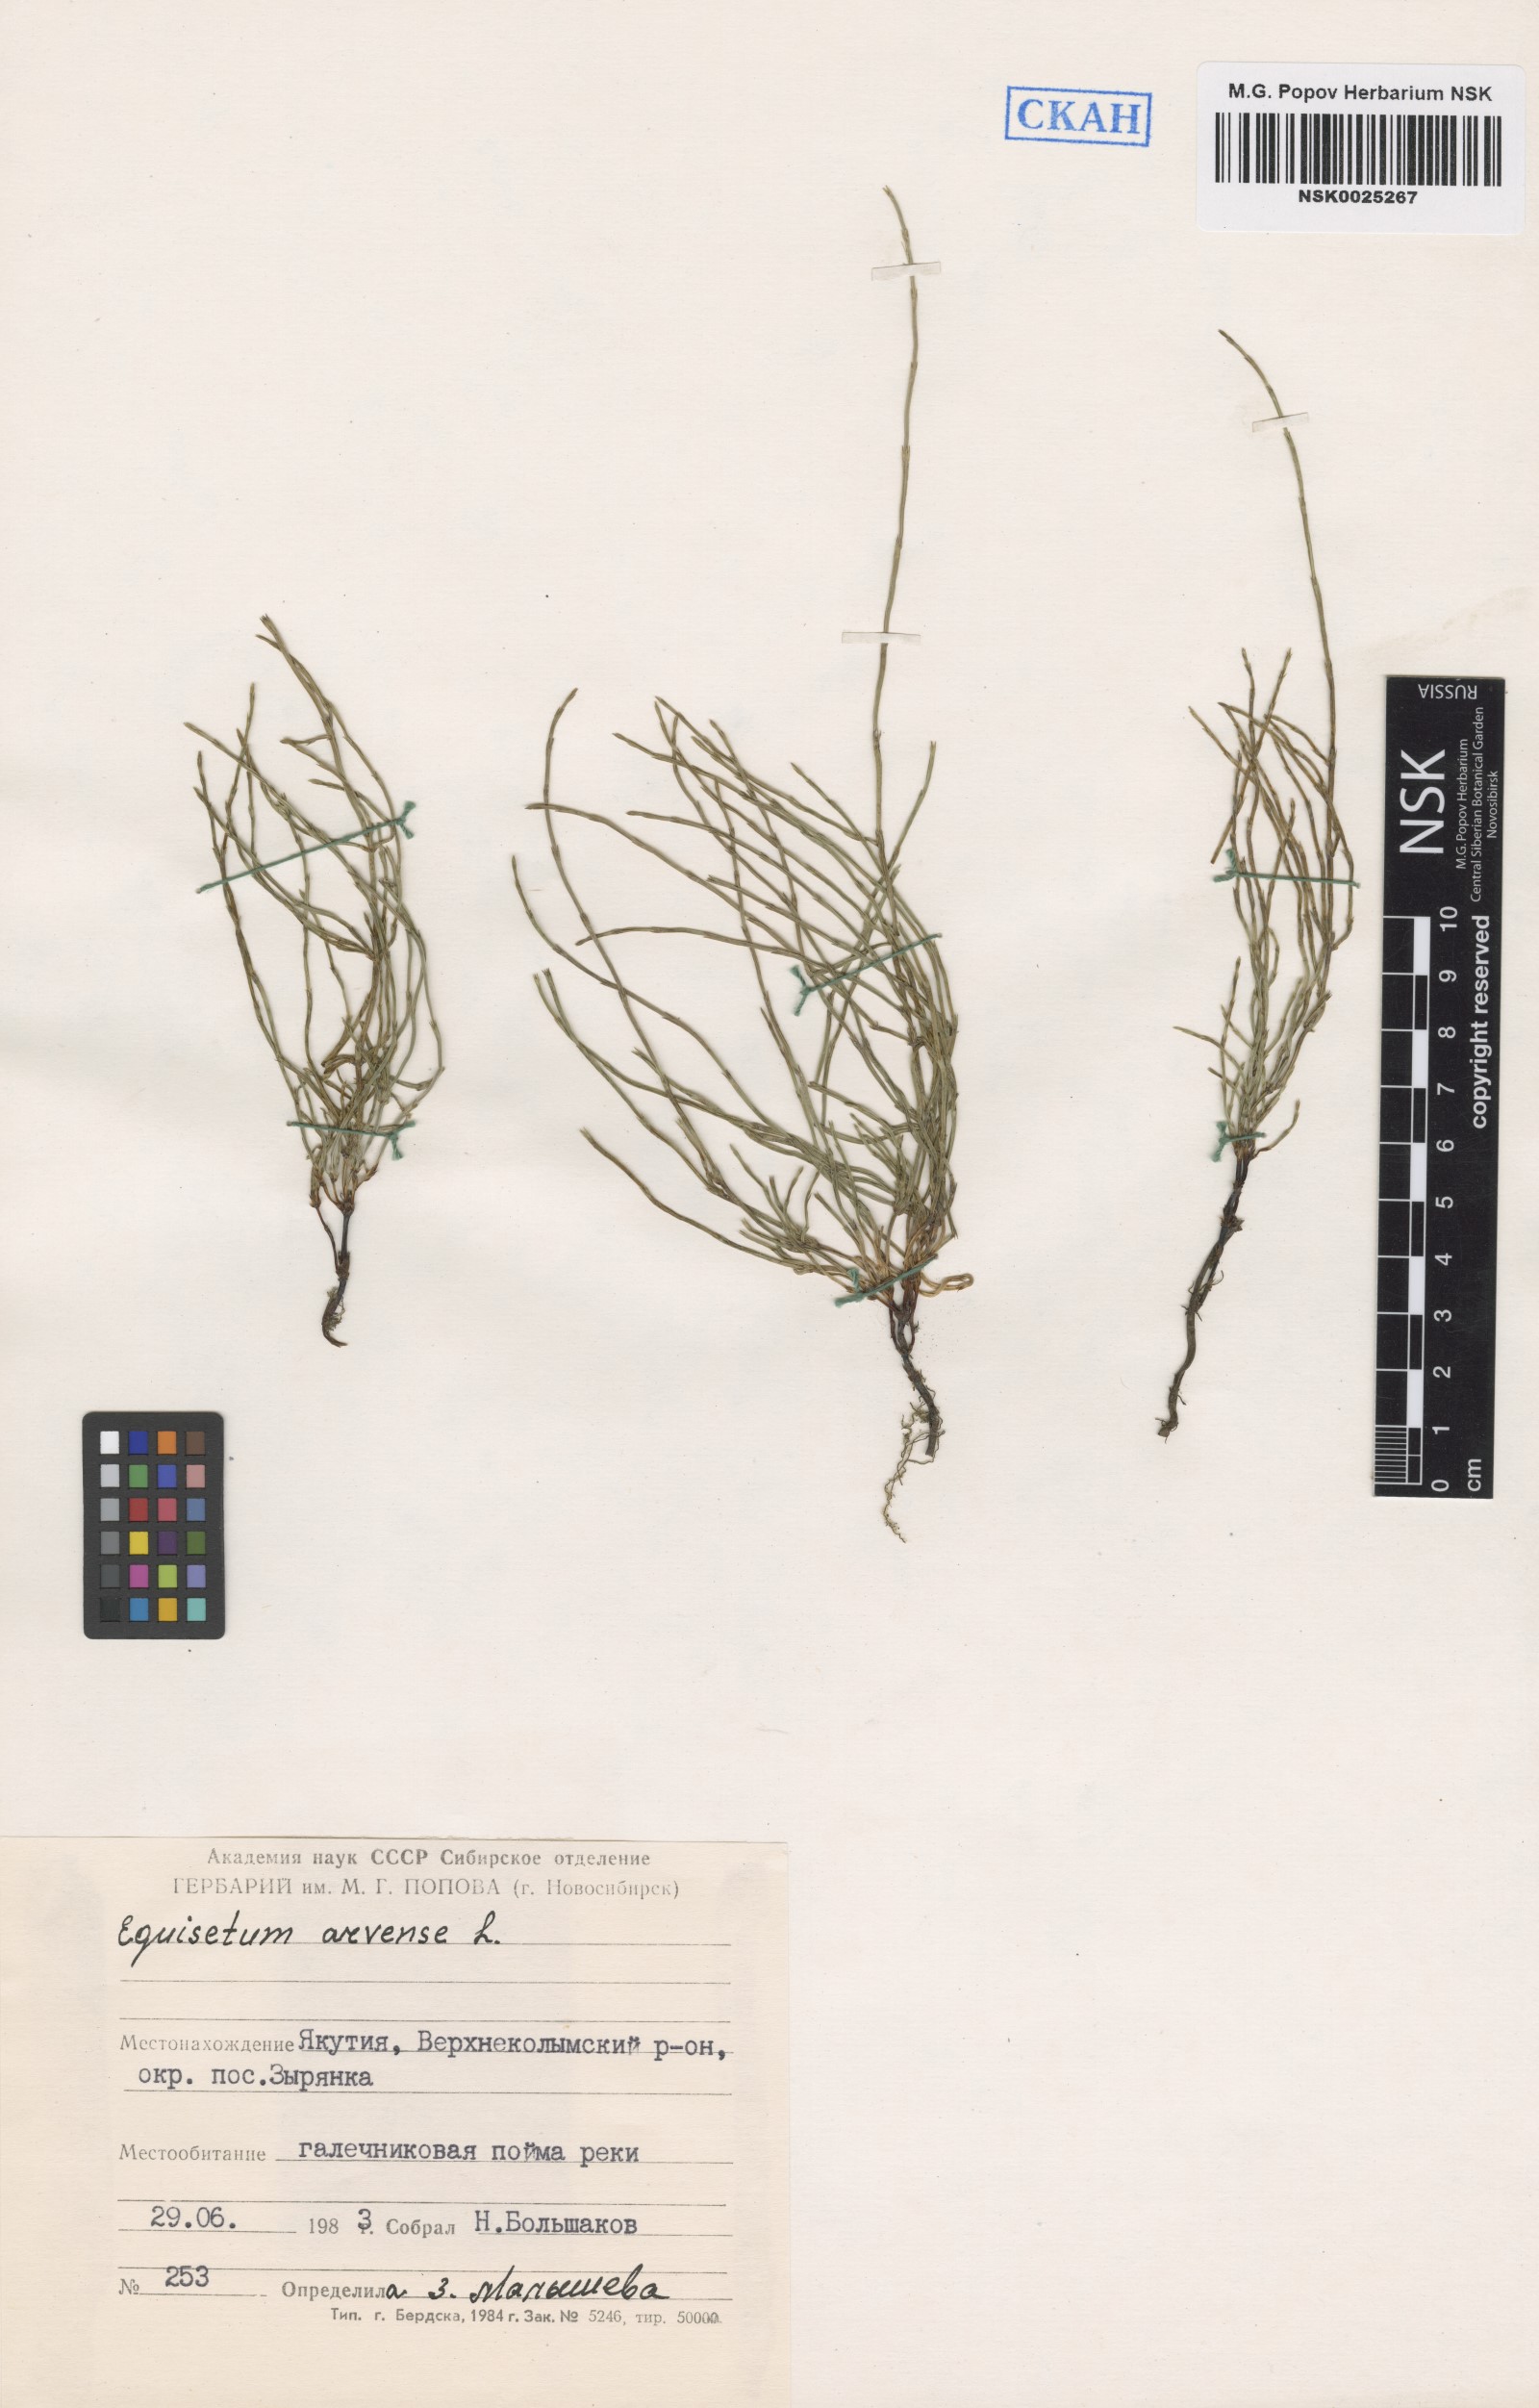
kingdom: Plantae
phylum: Tracheophyta
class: Polypodiopsida
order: Equisetales
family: Equisetaceae
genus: Equisetum
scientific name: Equisetum arvense
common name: Field horsetail
